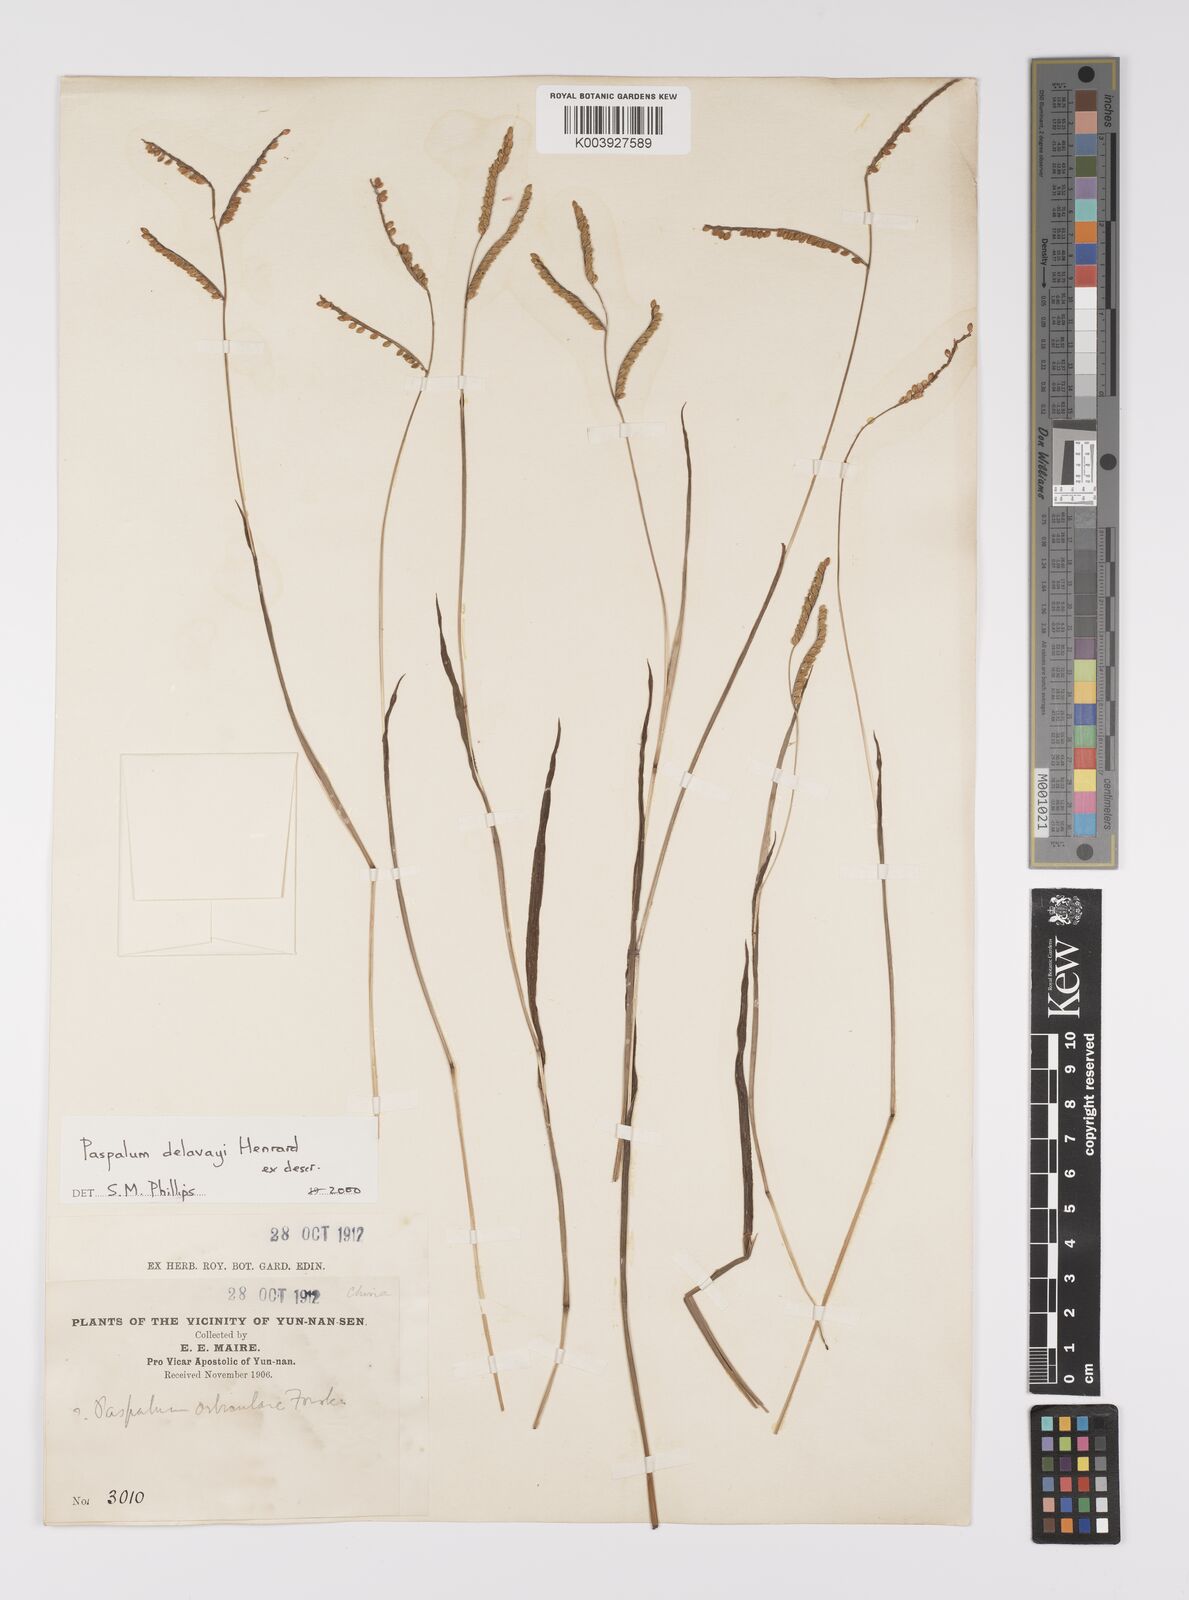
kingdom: Plantae
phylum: Tracheophyta
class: Liliopsida
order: Poales
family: Poaceae
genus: Paspalum
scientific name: Paspalum delavayi
